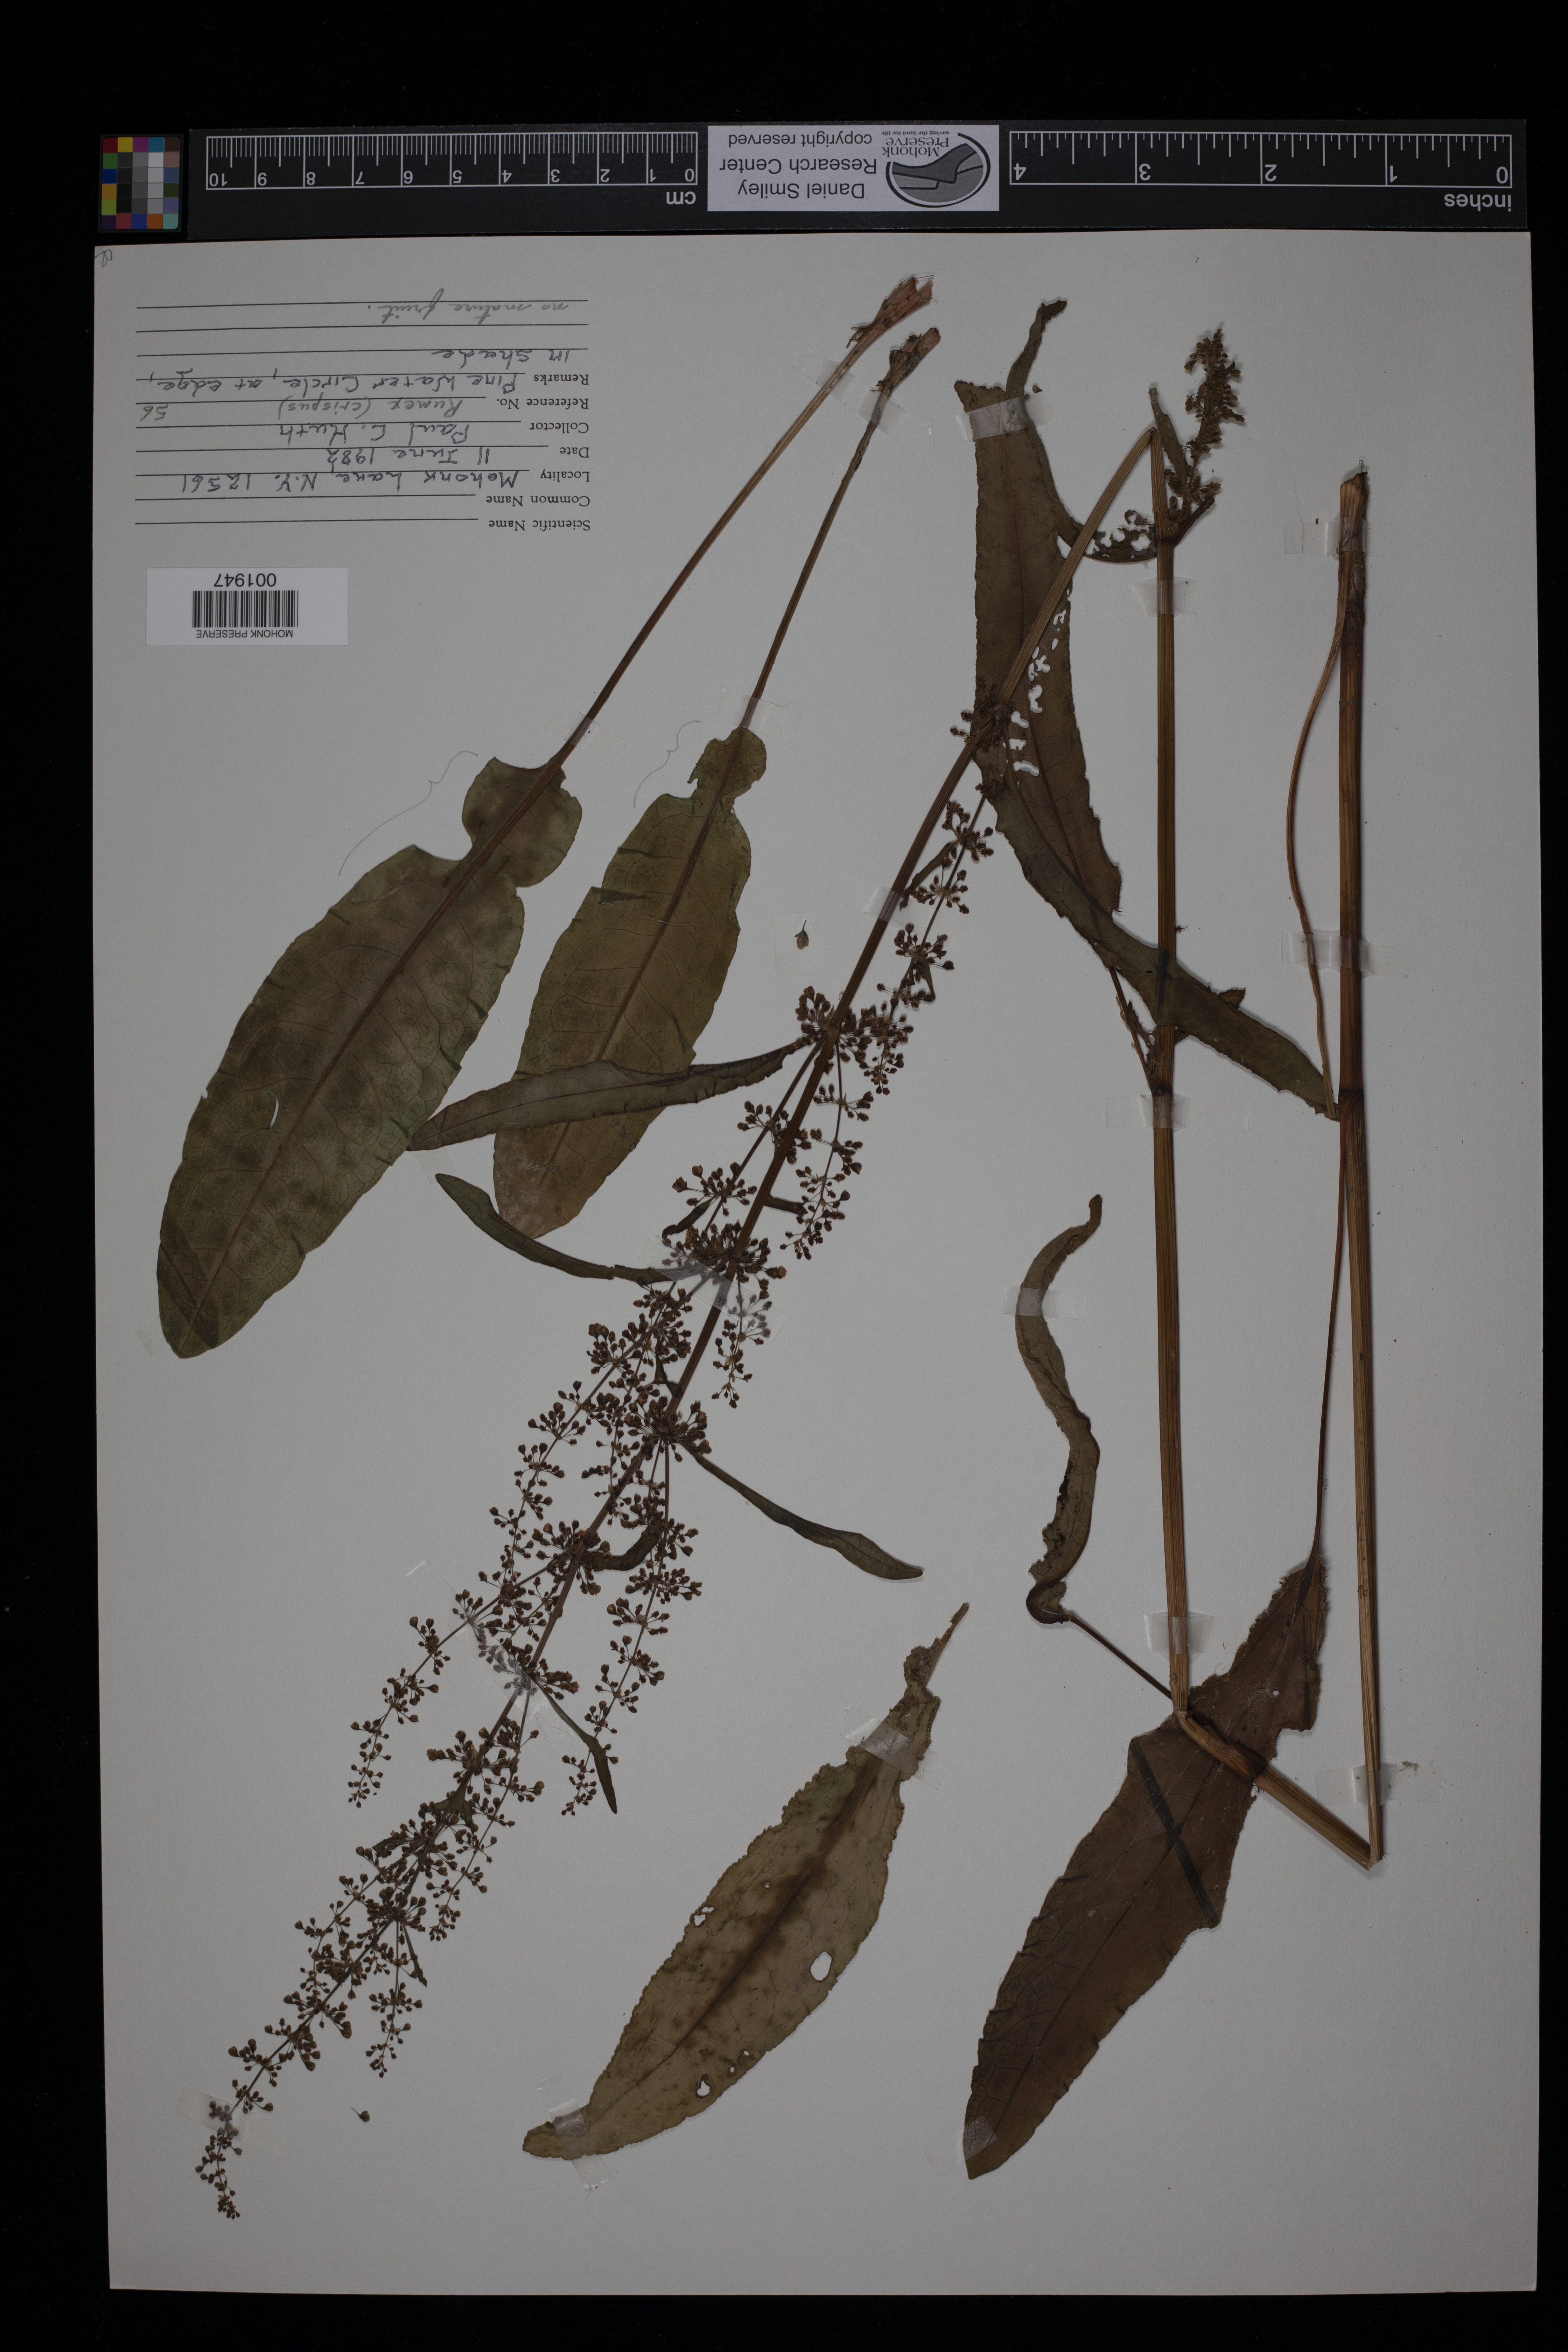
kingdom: Plantae
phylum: Tracheophyta
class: Magnoliopsida
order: Caryophyllales
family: Polygonaceae
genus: Rumex
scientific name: Rumex crispus
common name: Curled dock
